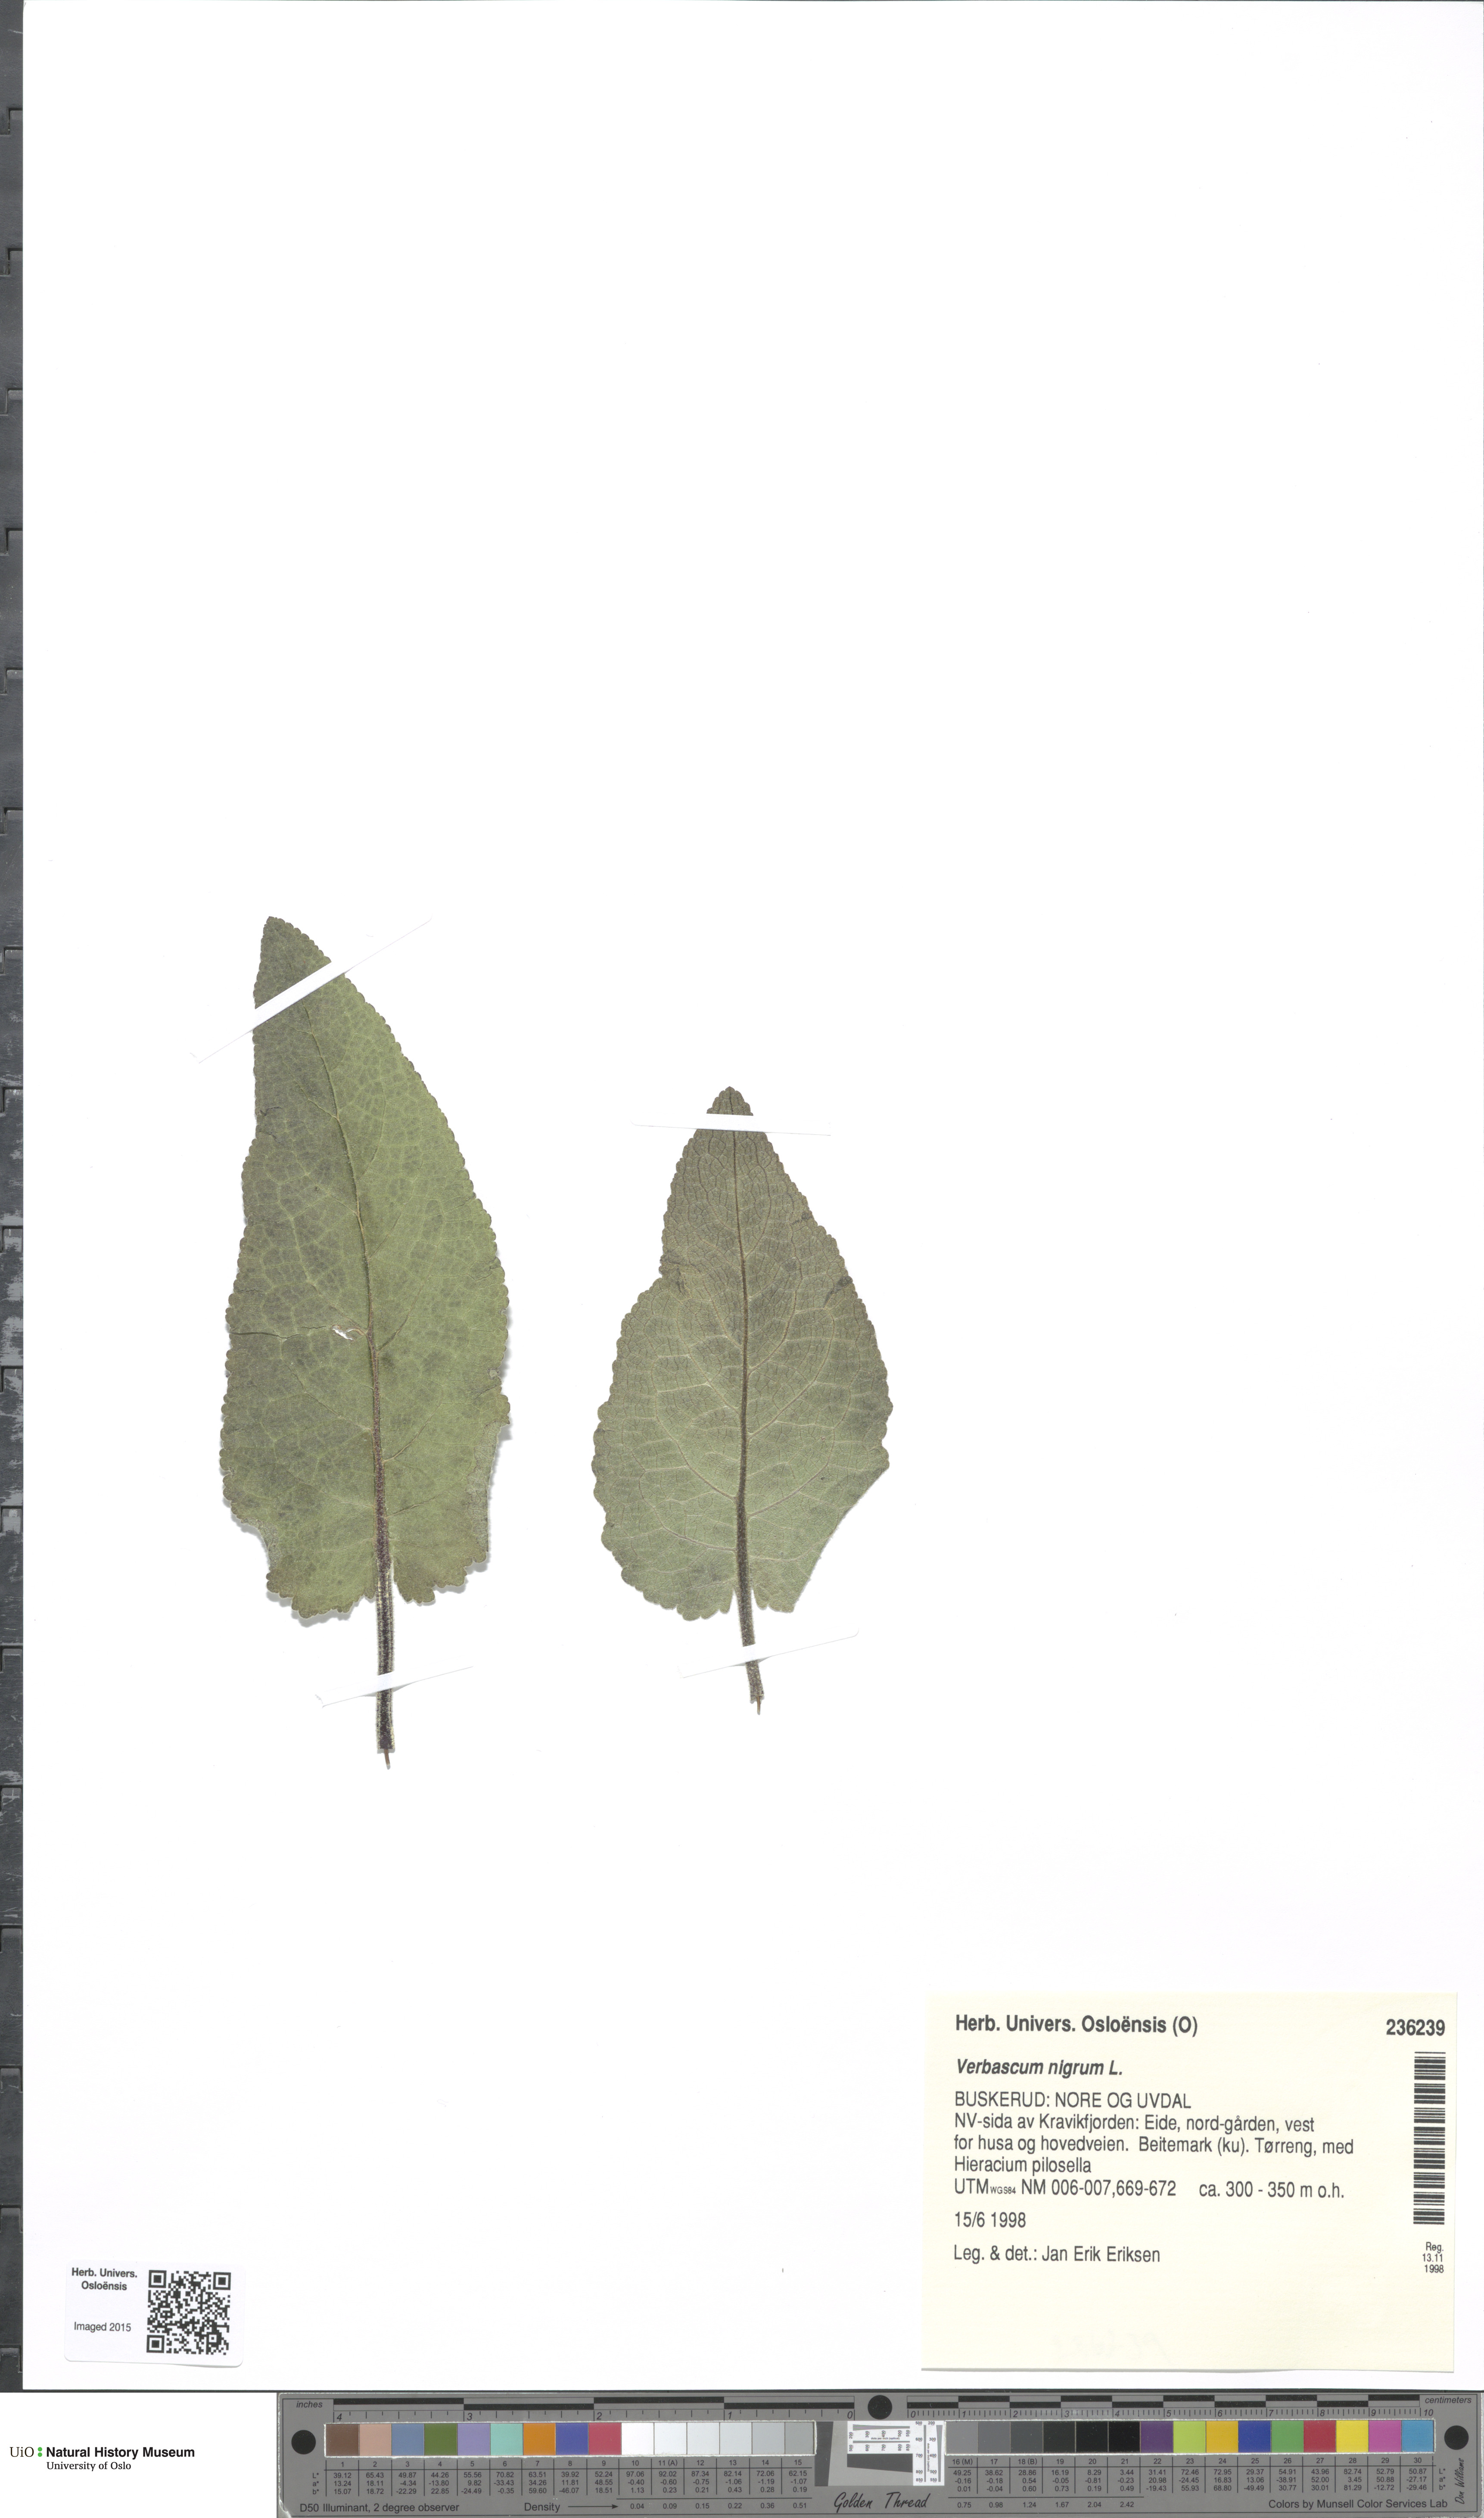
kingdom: Plantae
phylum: Tracheophyta
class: Magnoliopsida
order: Lamiales
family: Scrophulariaceae
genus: Verbascum
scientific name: Verbascum nigrum
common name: Dark mullein
